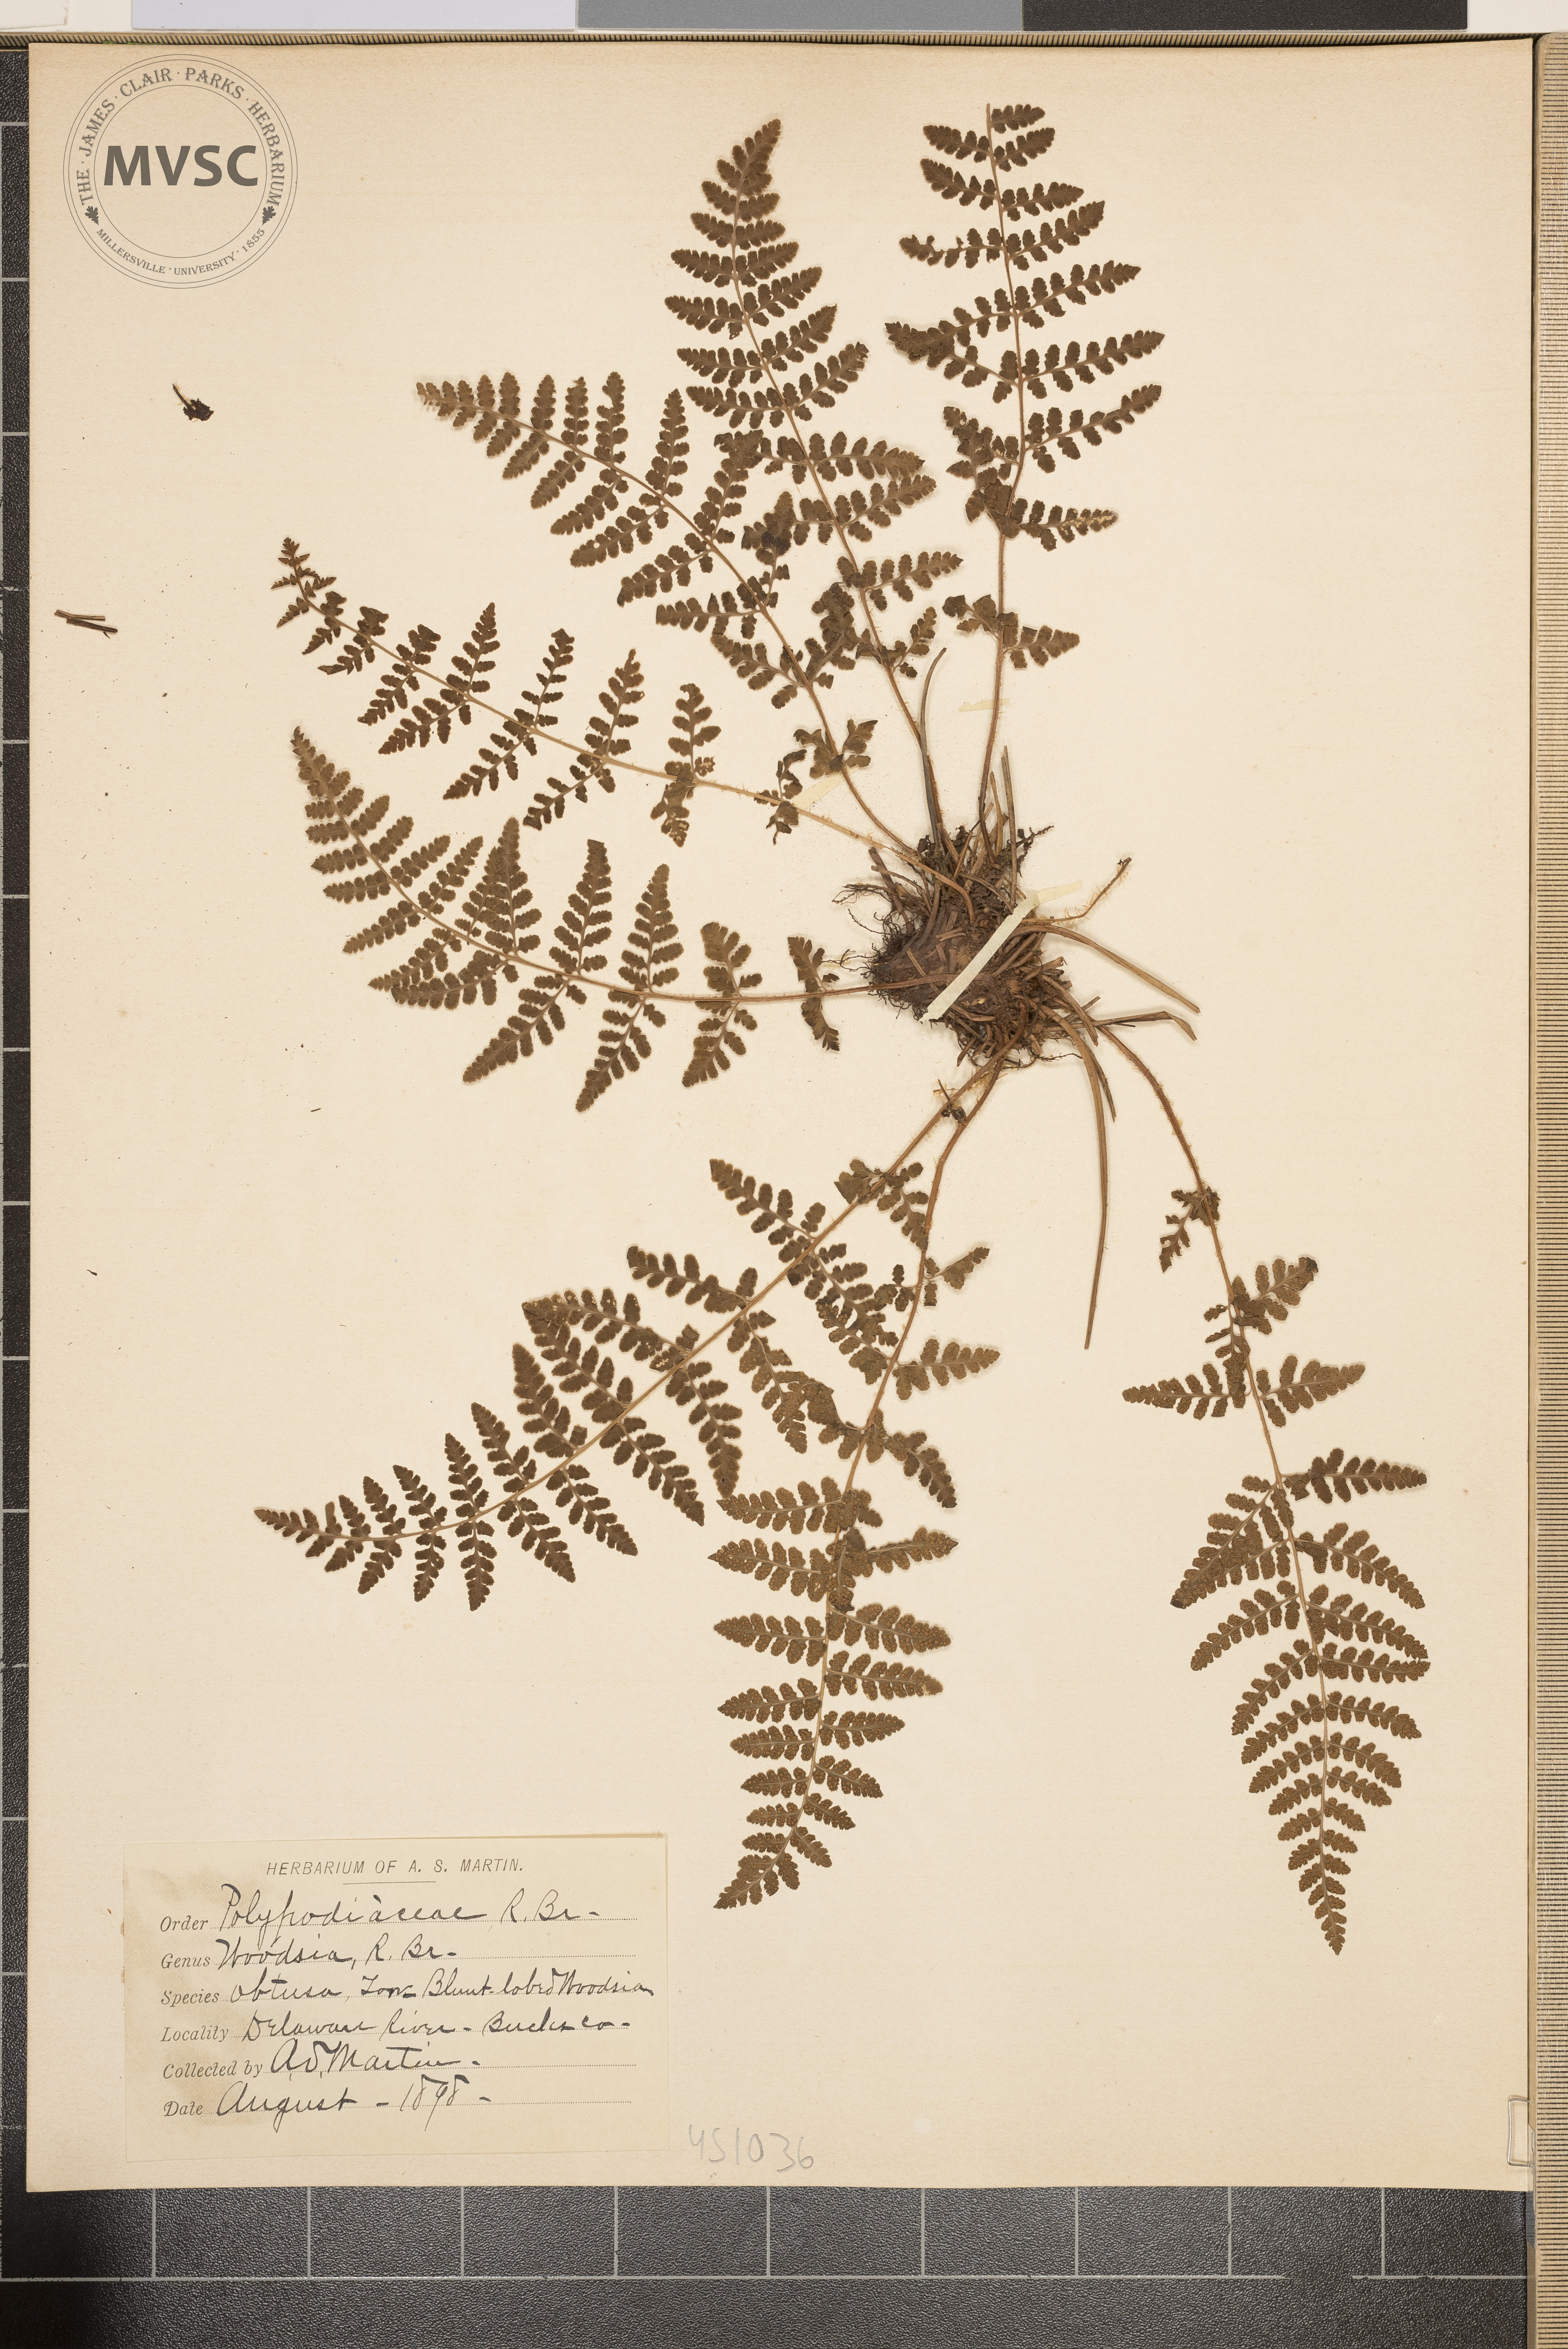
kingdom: Plantae
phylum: Tracheophyta
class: Polypodiopsida
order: Polypodiales
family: Woodsiaceae
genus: Physematium
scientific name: Physematium obtusum
